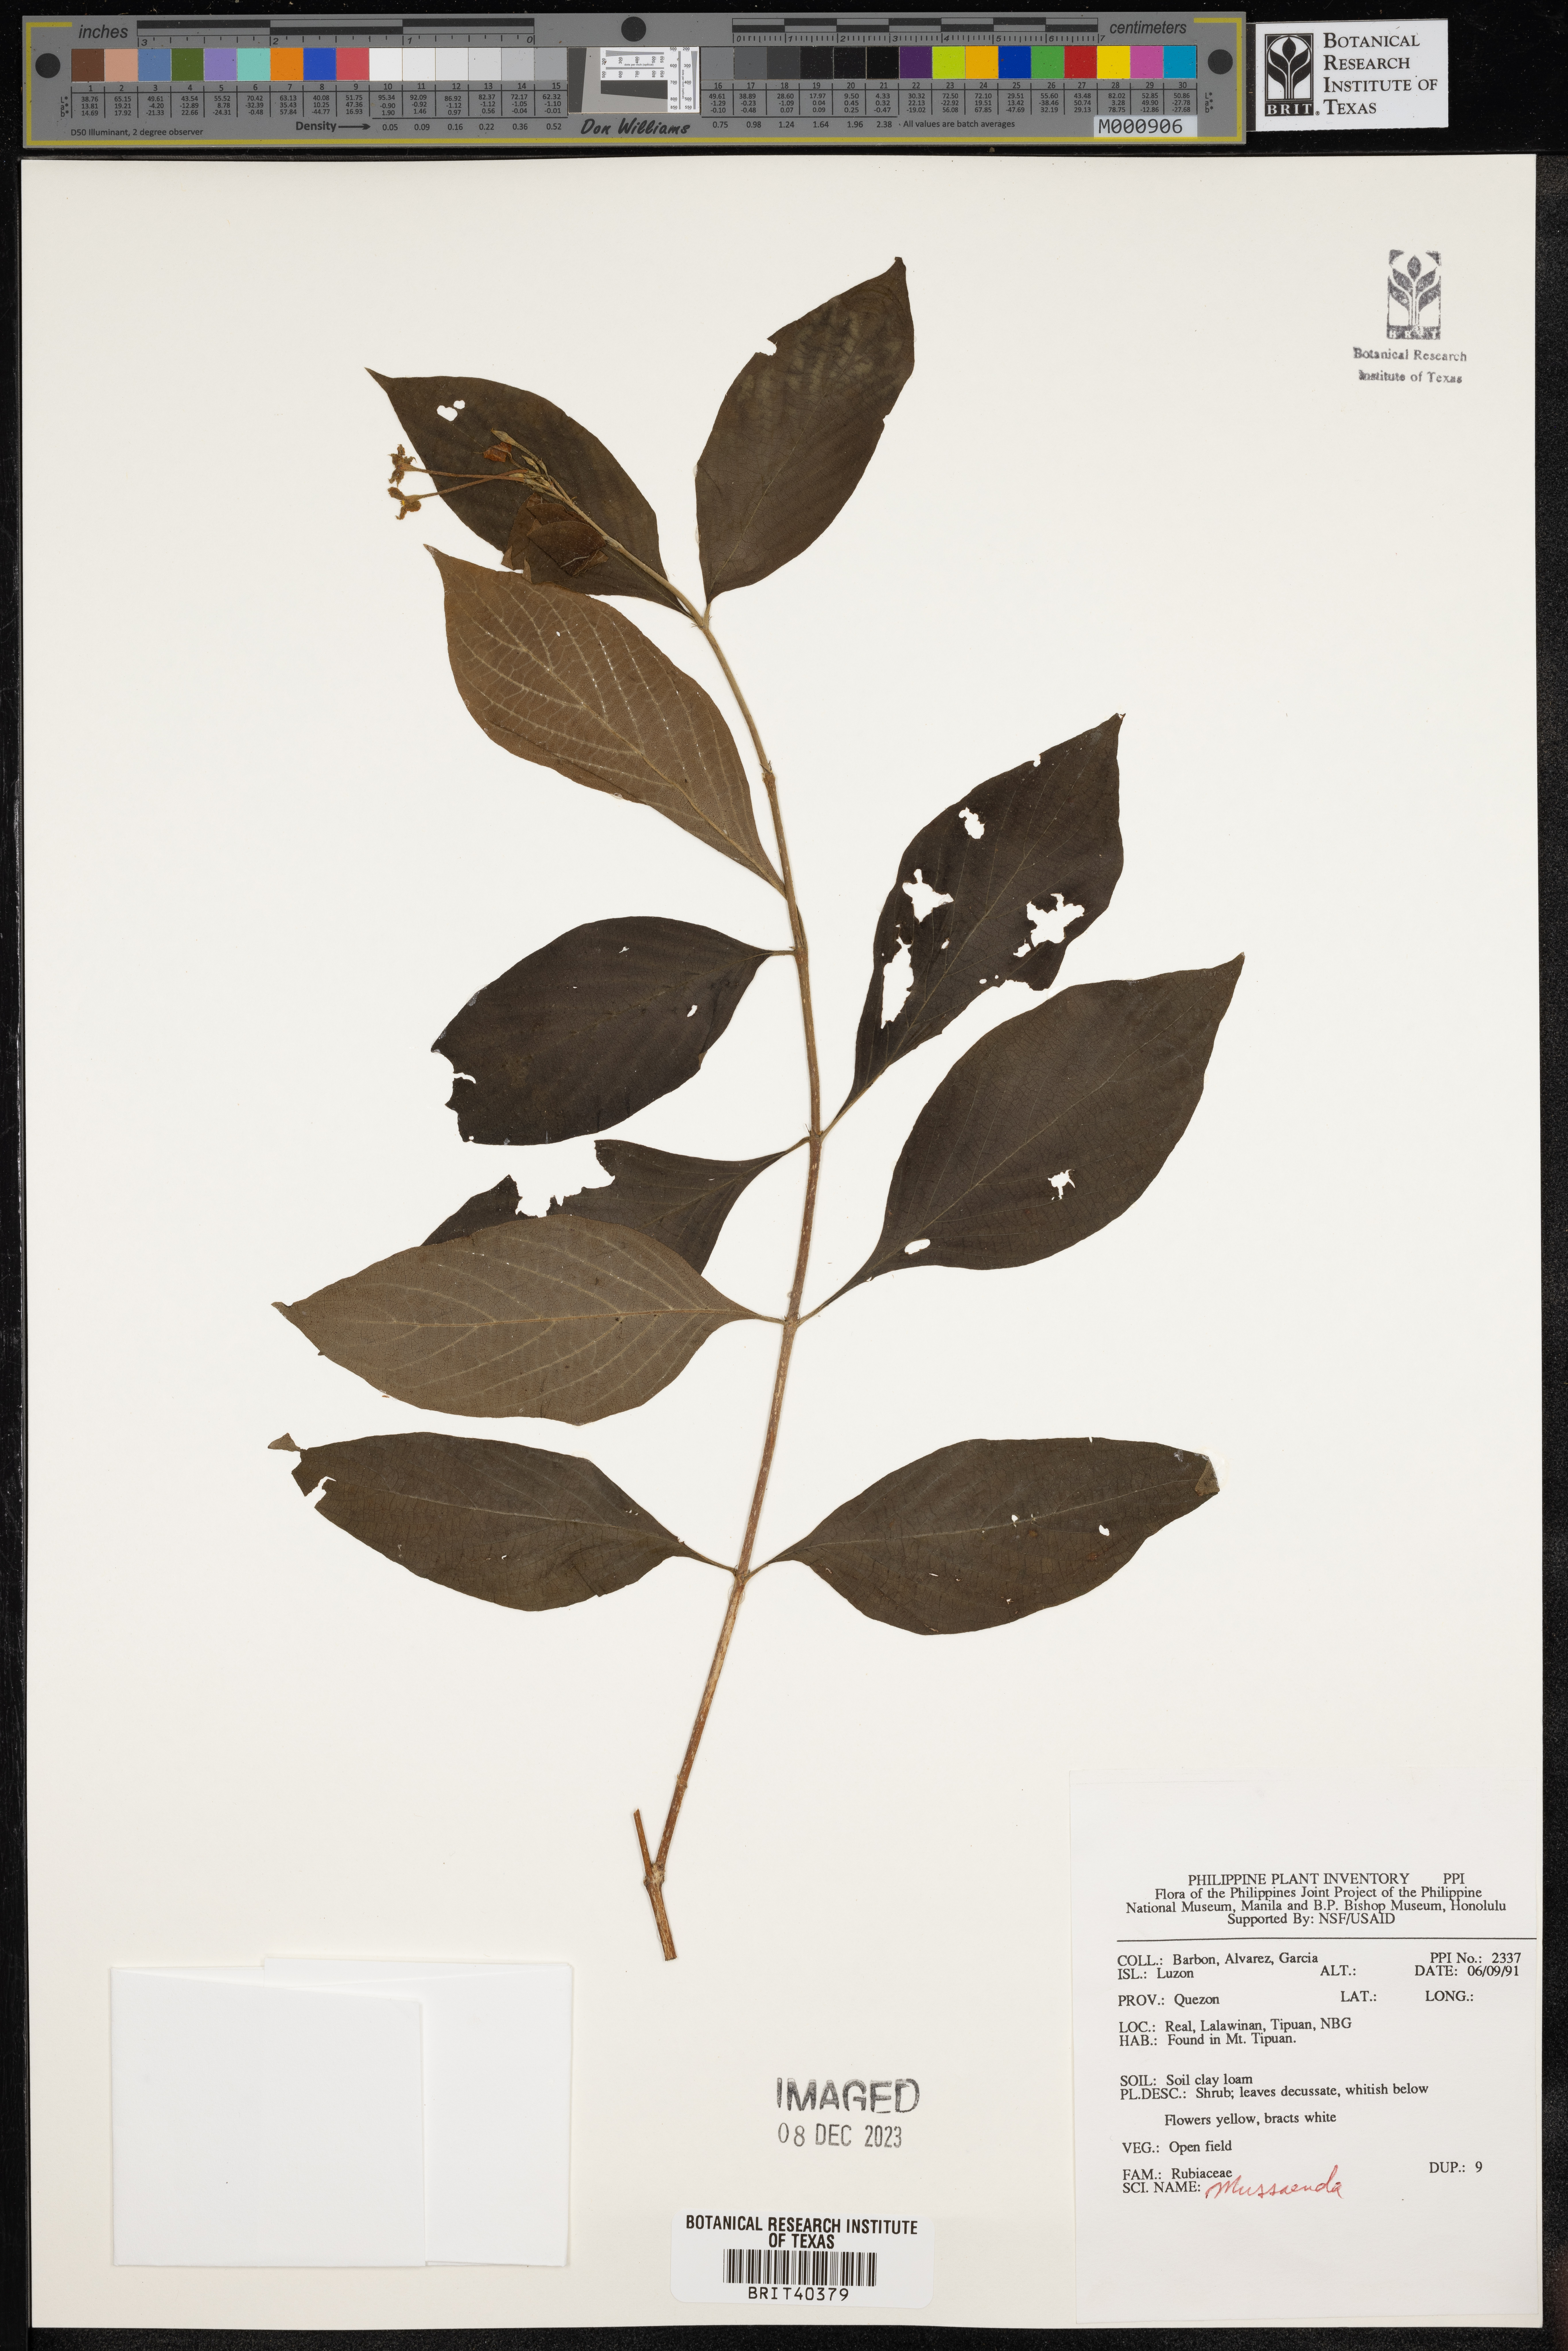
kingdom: Plantae
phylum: Tracheophyta
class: Magnoliopsida
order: Gentianales
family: Rubiaceae
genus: Mussaenda
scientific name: Mussaenda
